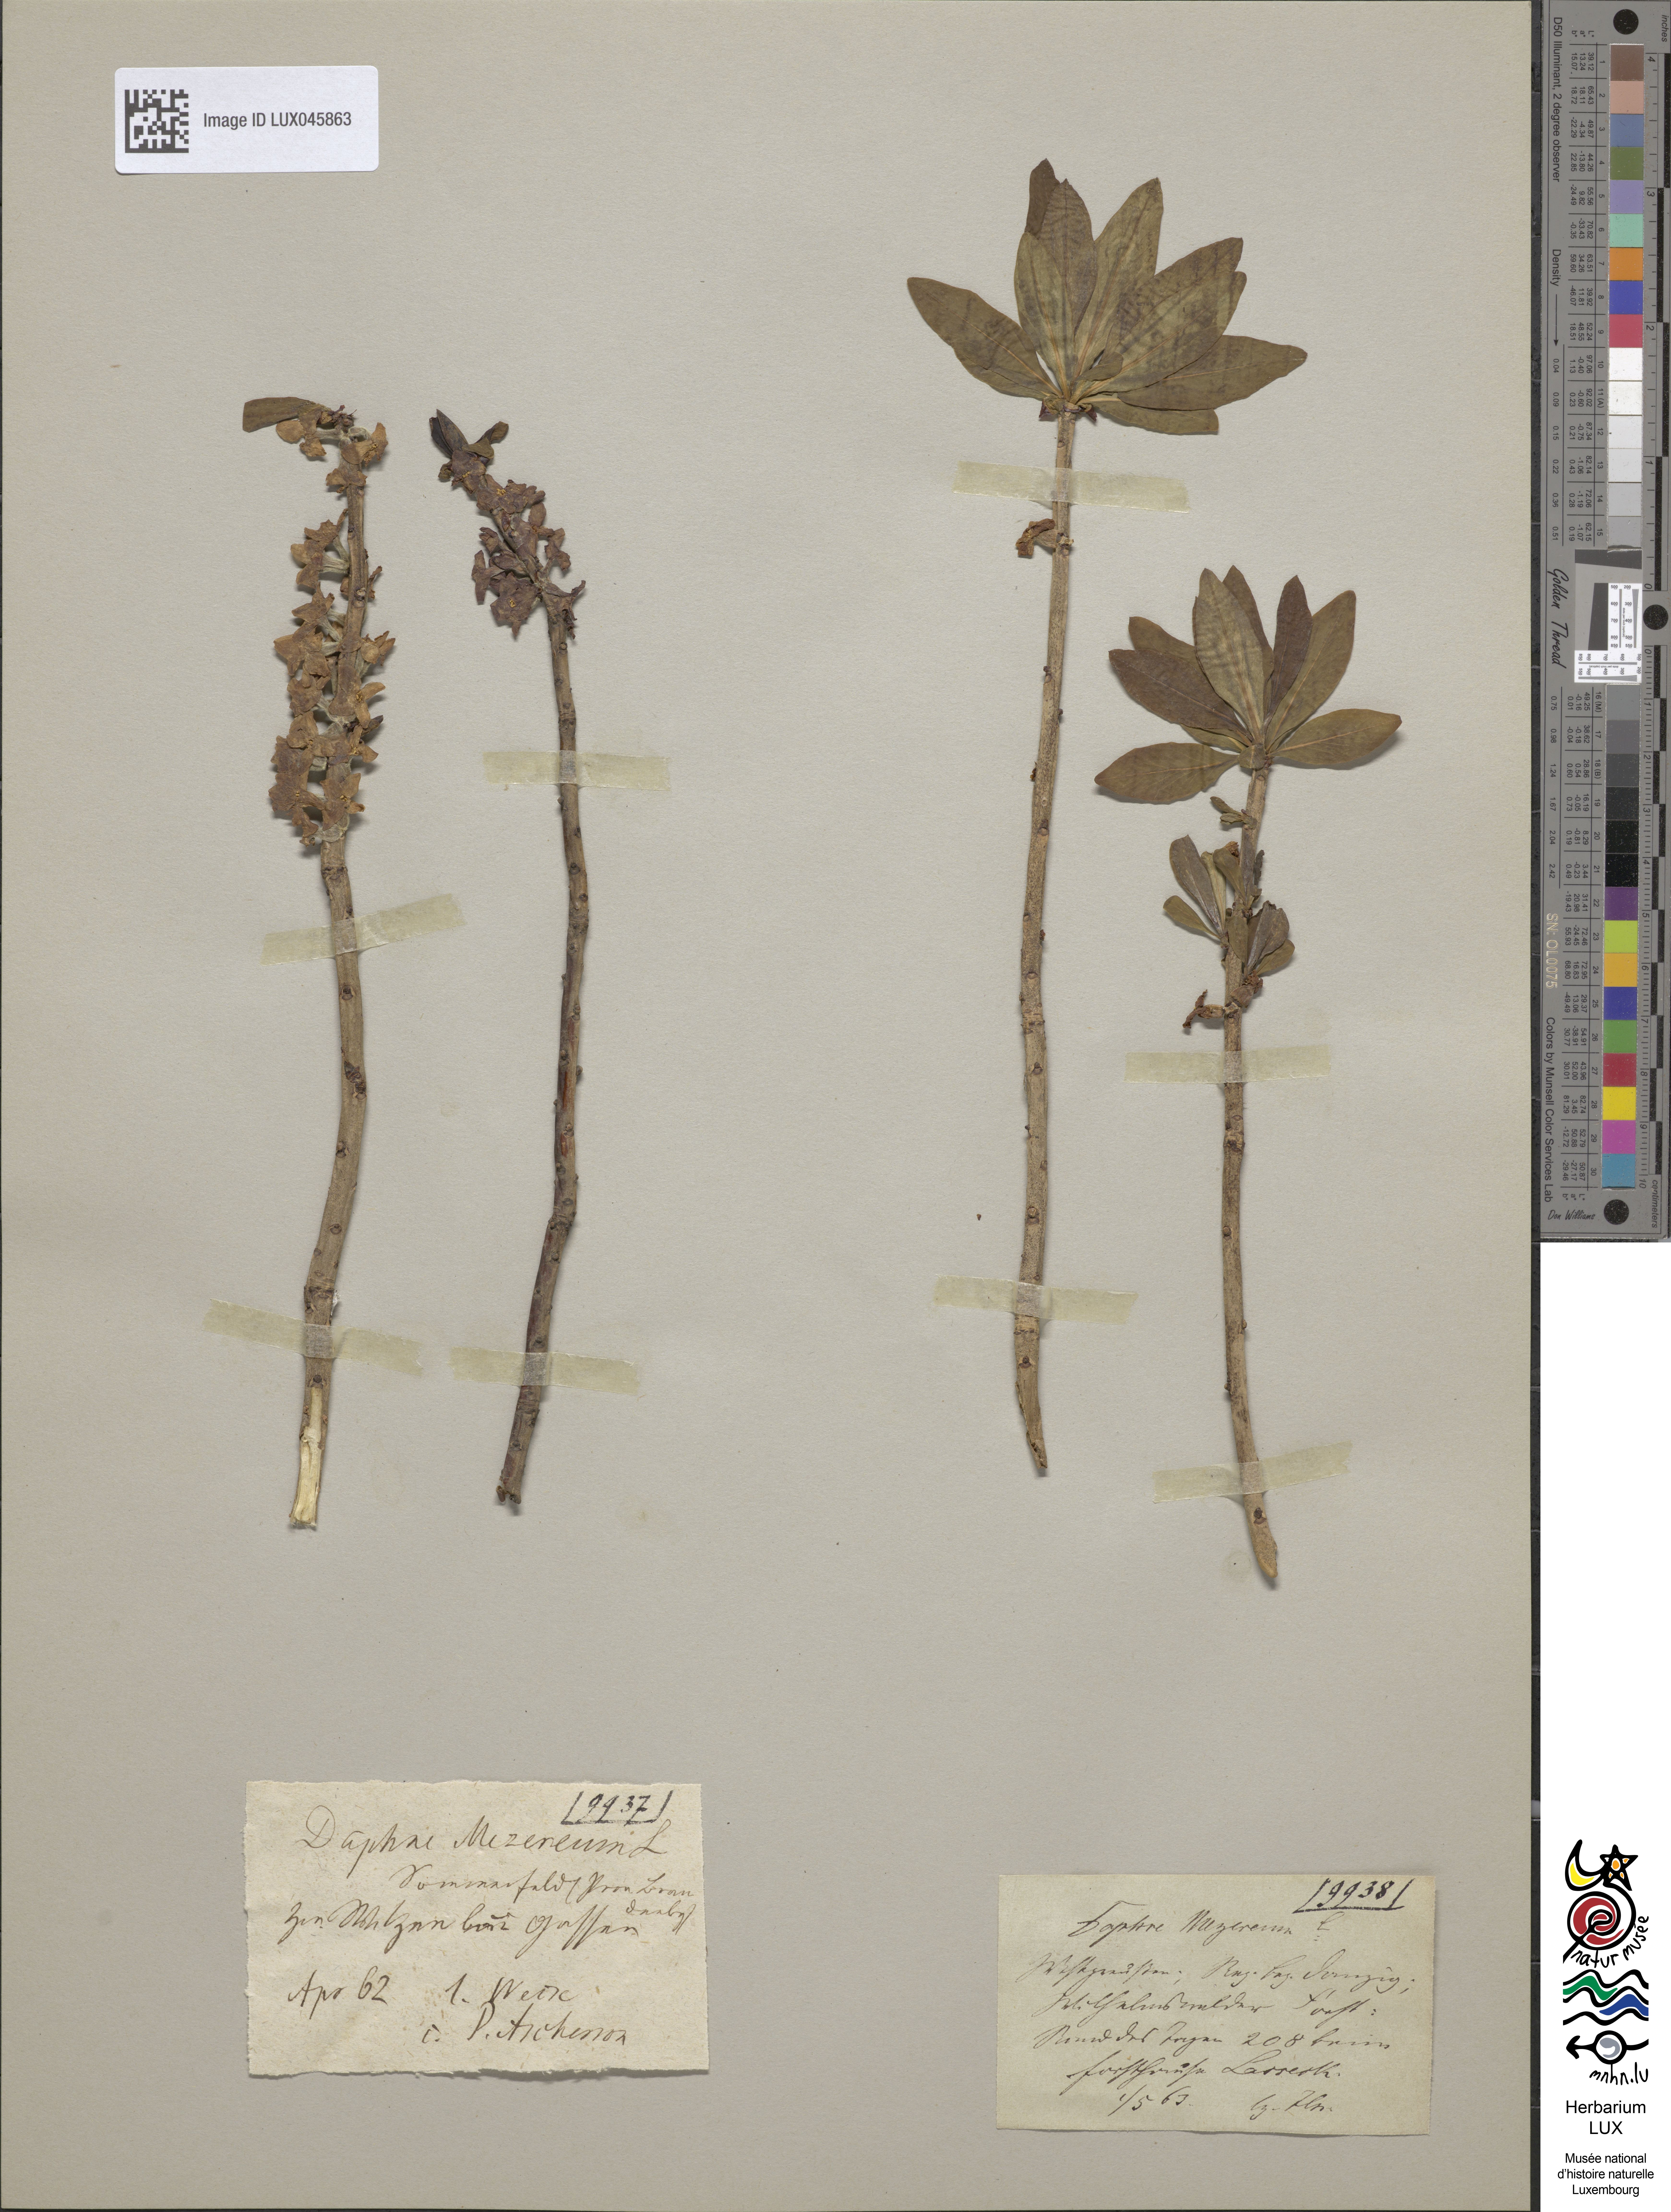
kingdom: Plantae
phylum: Tracheophyta
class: Magnoliopsida
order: Malvales
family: Thymelaeaceae
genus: Daphne
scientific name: Daphne mezereum
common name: Mezereon
